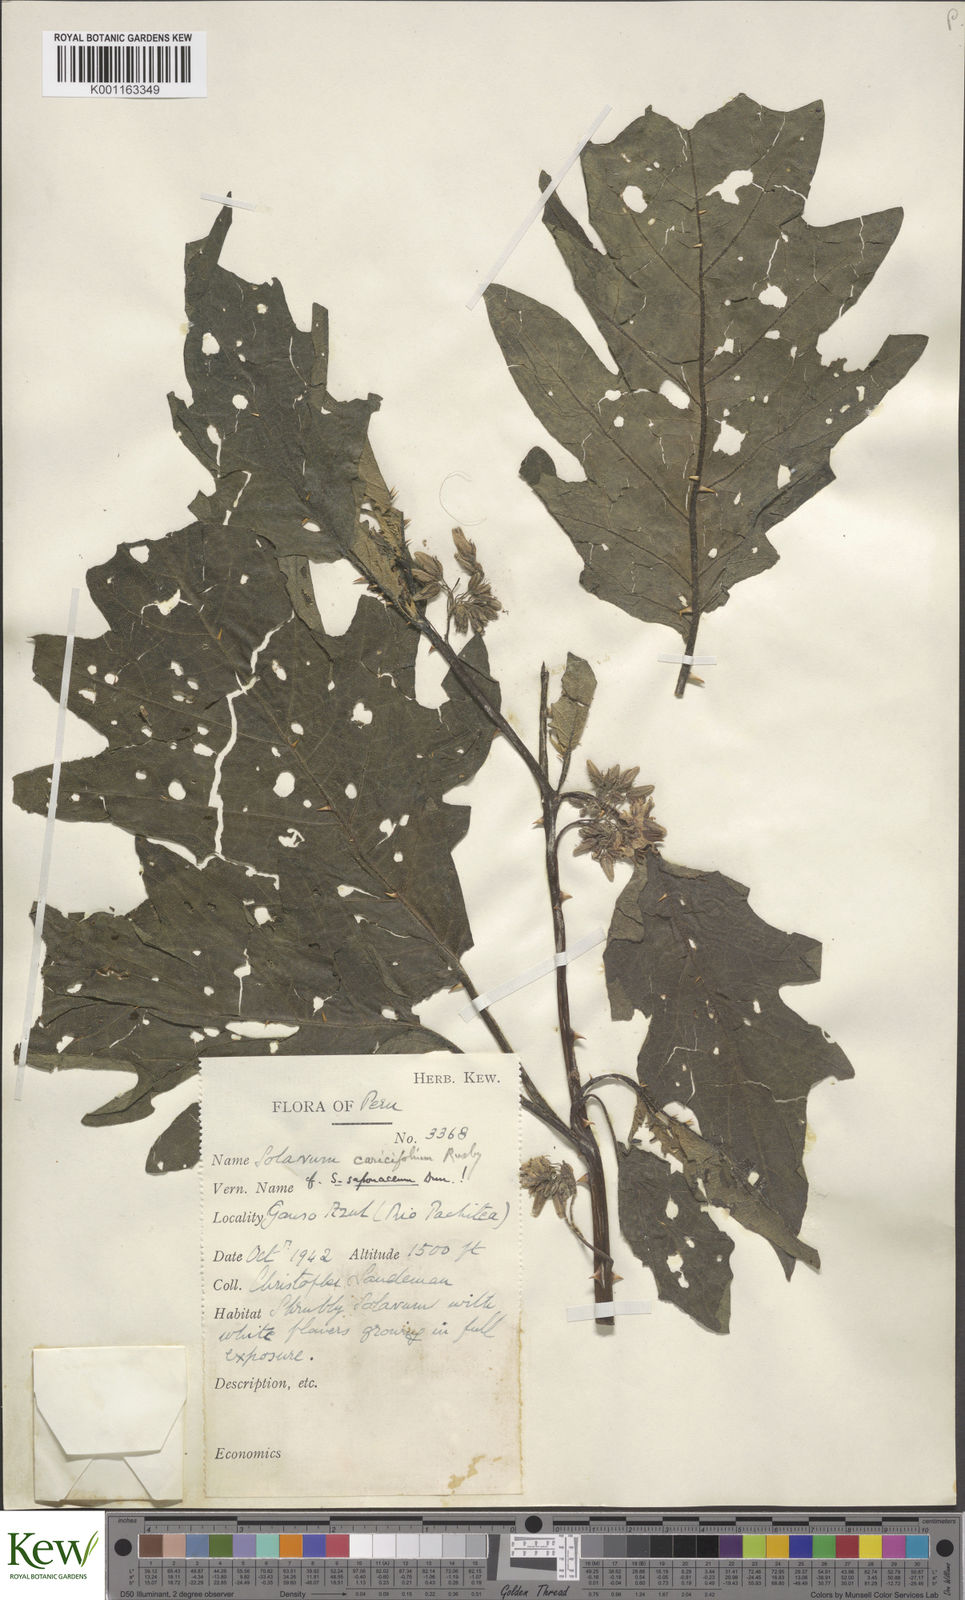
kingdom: Plantae
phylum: Tracheophyta
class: Magnoliopsida
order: Solanales
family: Solanaceae
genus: Solanum
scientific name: Solanum caricaefolium
